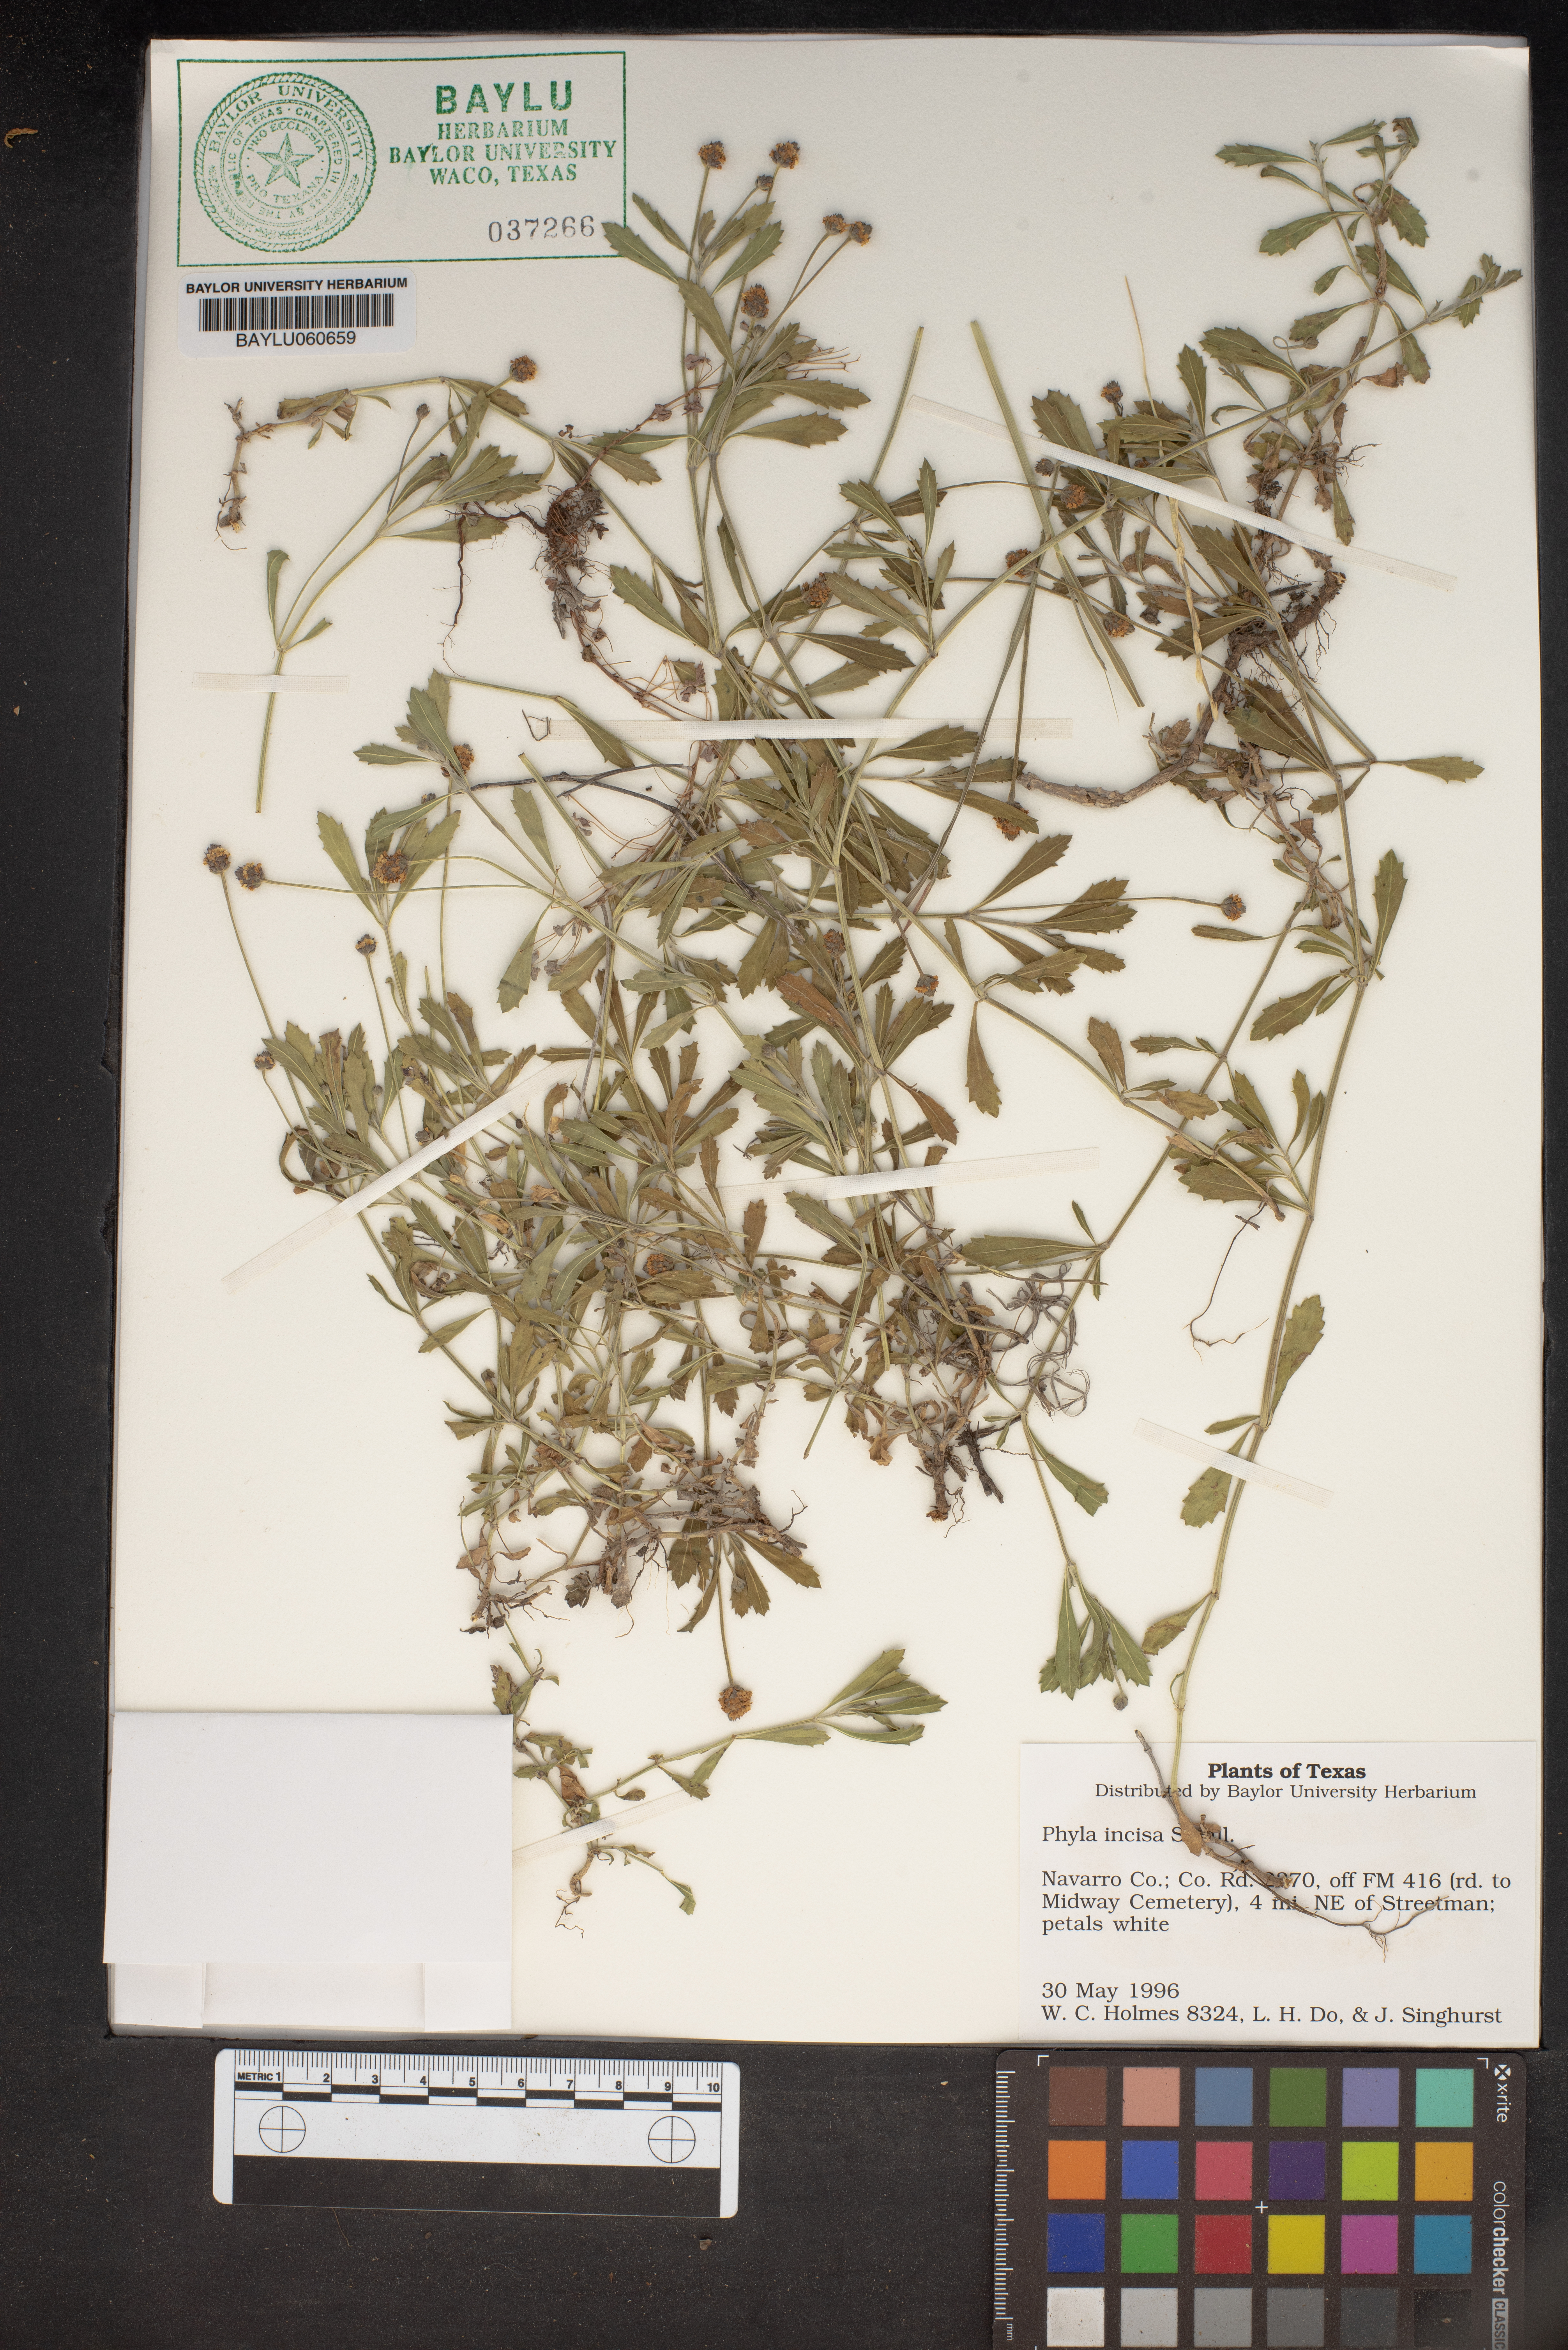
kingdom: Plantae
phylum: Tracheophyta
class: Magnoliopsida
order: Lamiales
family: Verbenaceae
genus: Phyla
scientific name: Phyla nodiflora
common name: Frogfruit
